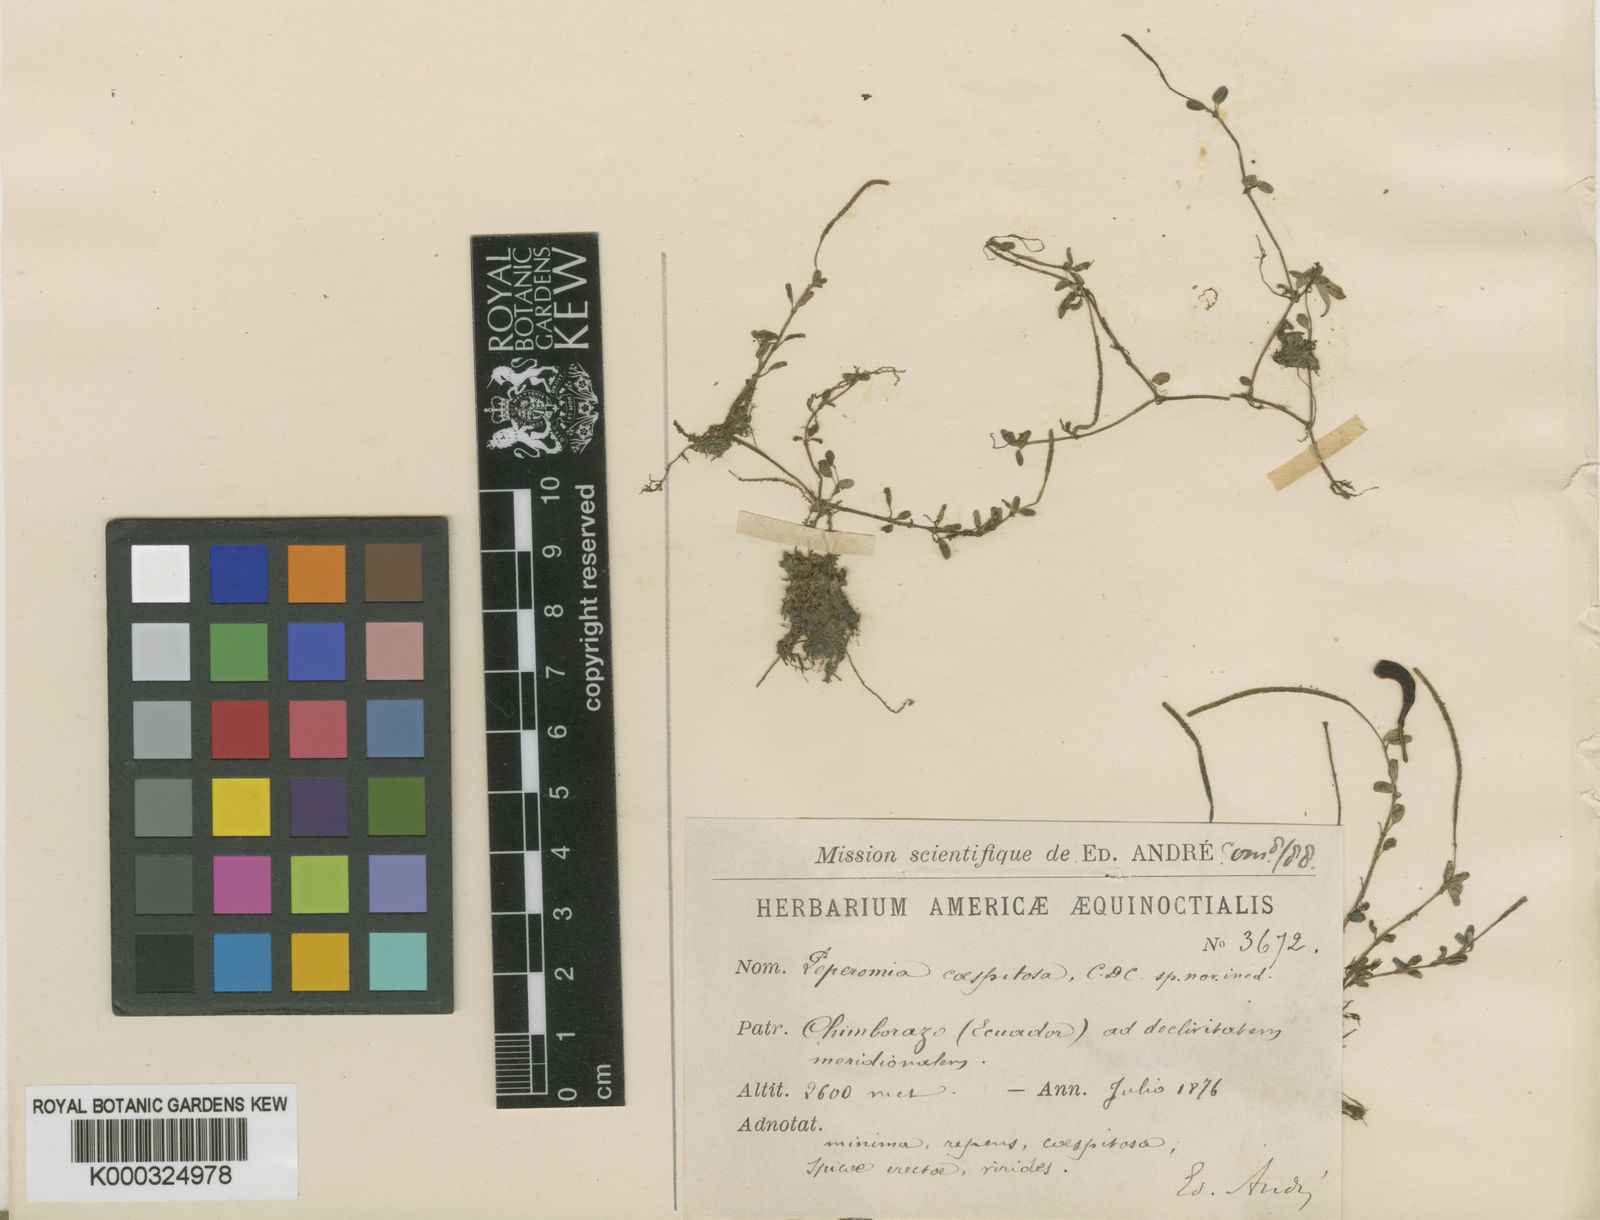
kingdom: Plantae
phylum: Tracheophyta
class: Magnoliopsida
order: Piperales
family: Piperaceae
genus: Peperomia
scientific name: Peperomia caespitosa
